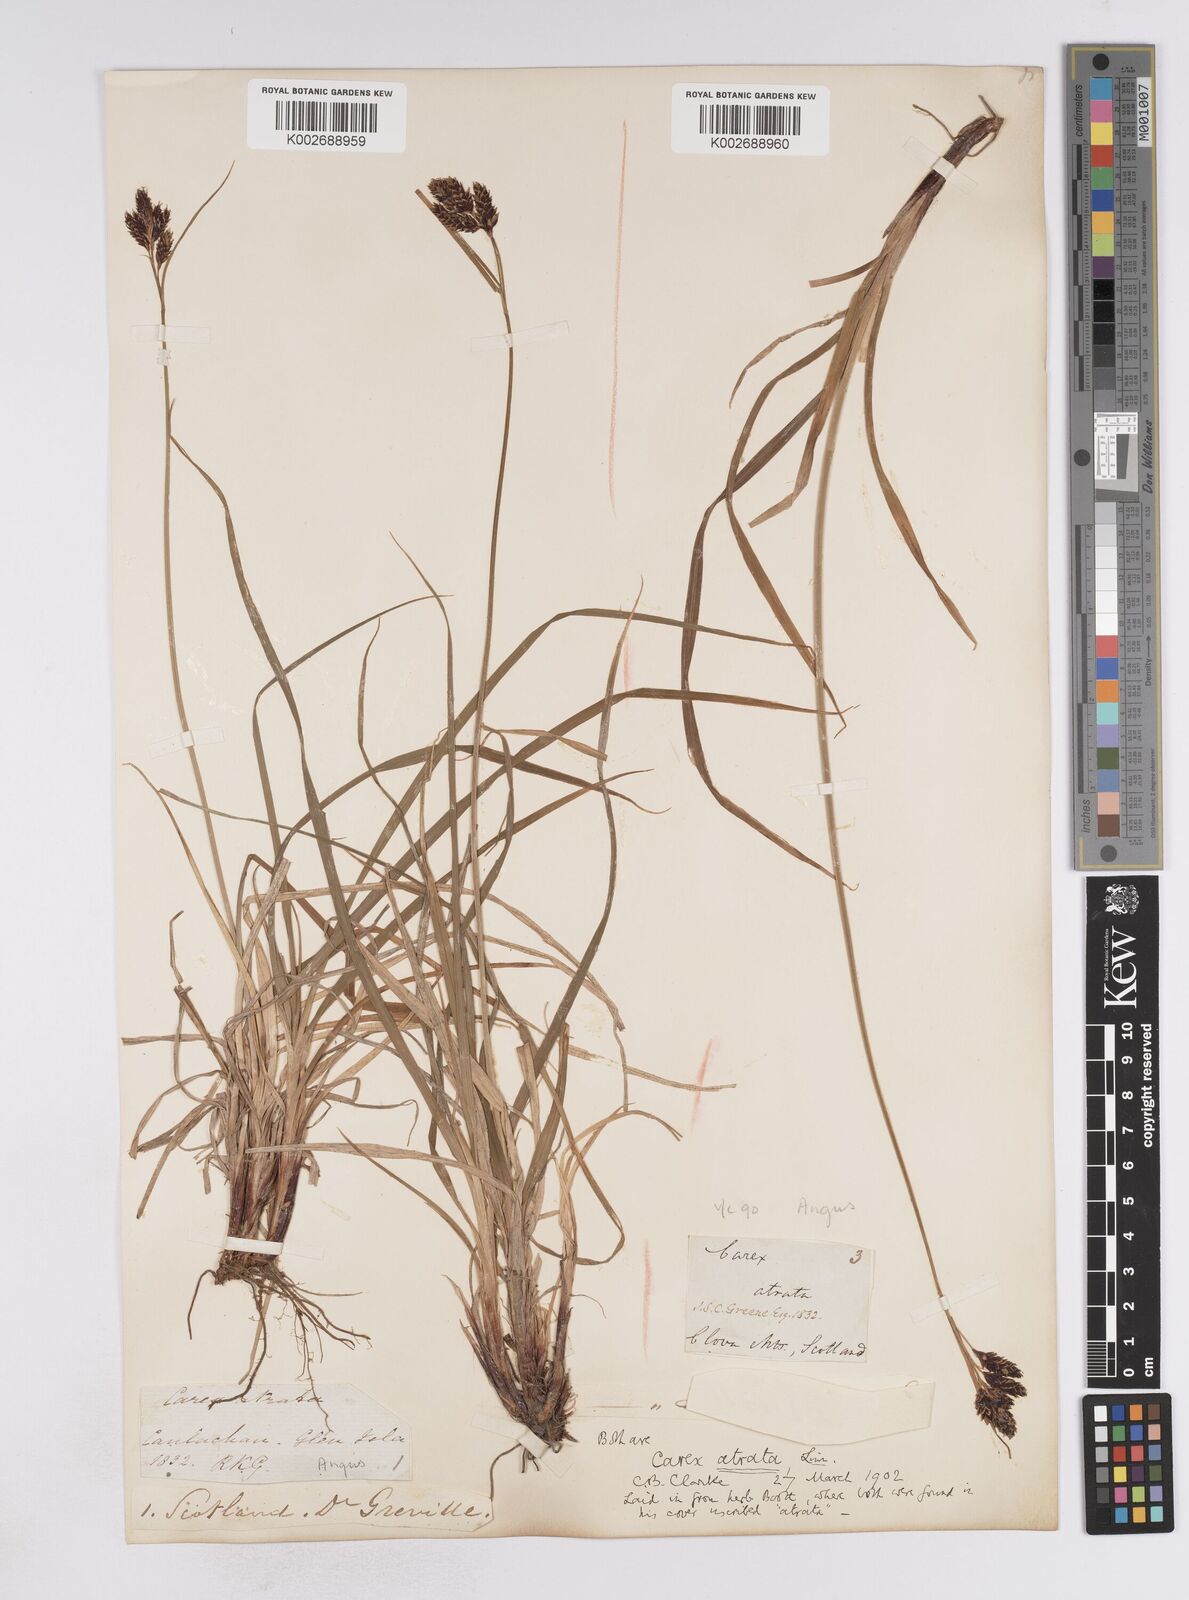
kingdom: Plantae
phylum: Tracheophyta
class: Liliopsida
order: Poales
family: Cyperaceae
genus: Carex
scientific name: Carex atrata
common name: Black alpine sedge
